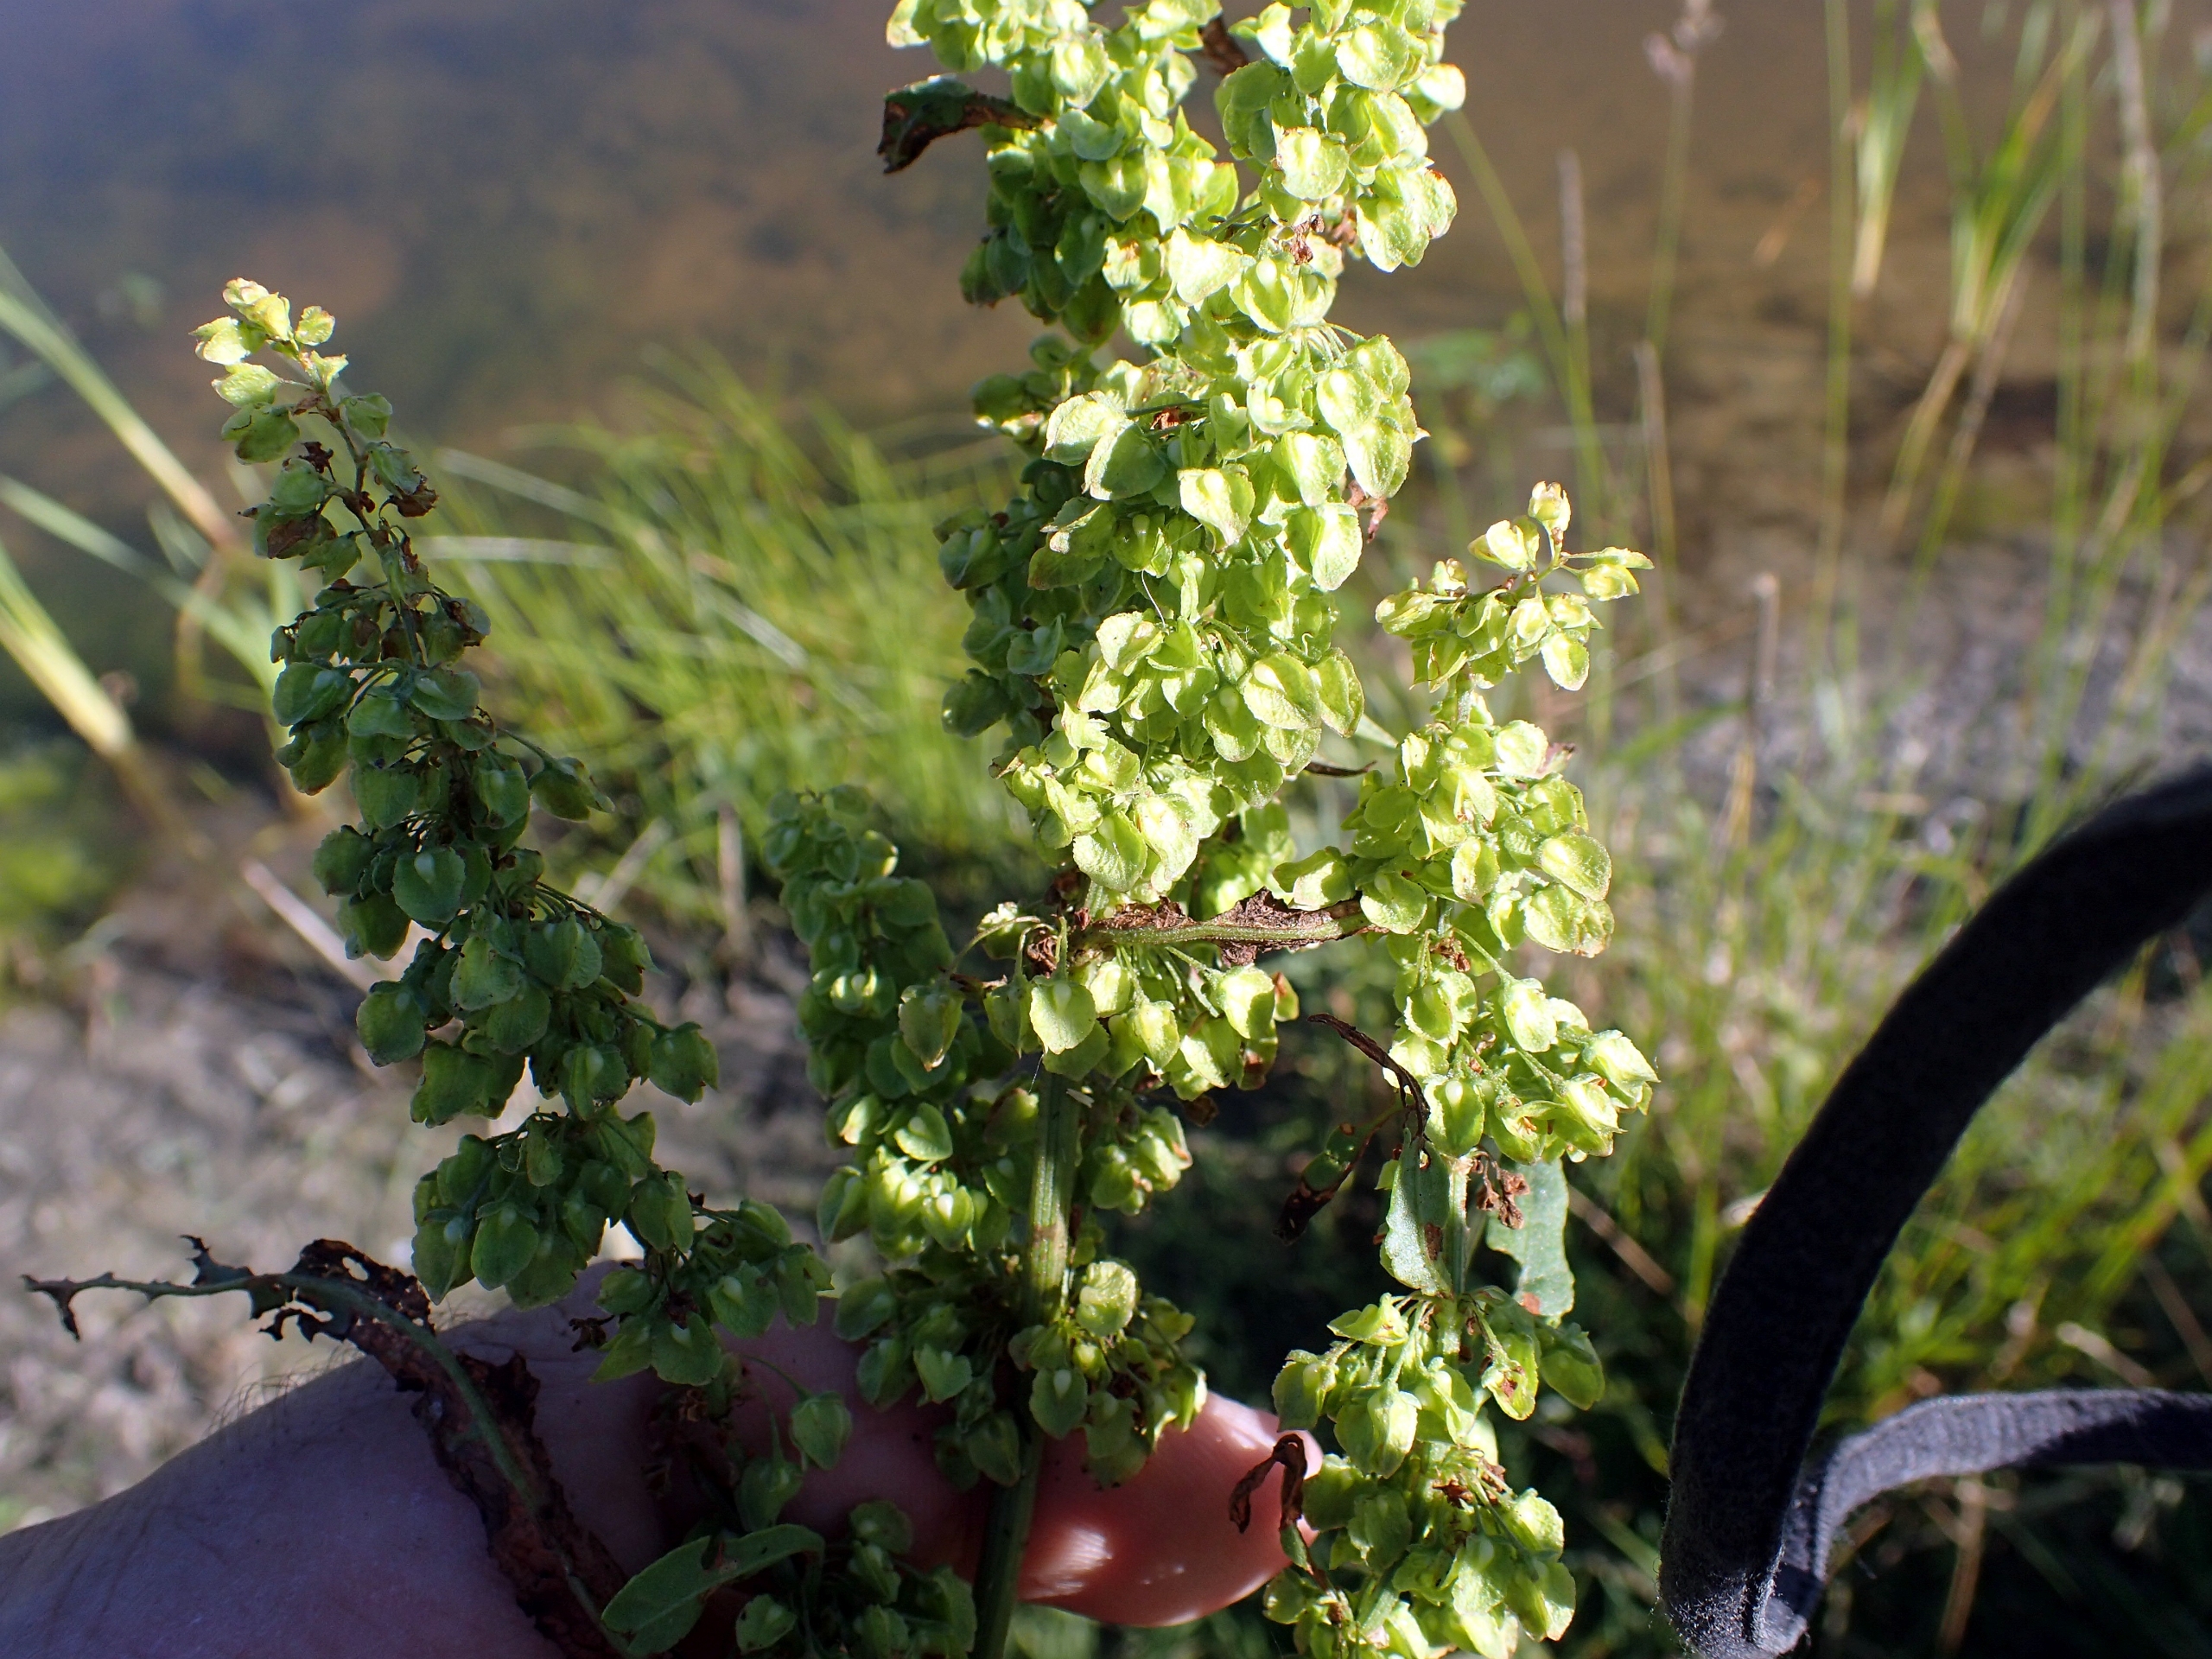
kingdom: Plantae
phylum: Tracheophyta
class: Magnoliopsida
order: Caryophyllales
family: Polygonaceae
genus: Rumex
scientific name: Rumex crispus
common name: Kruset skræppe
